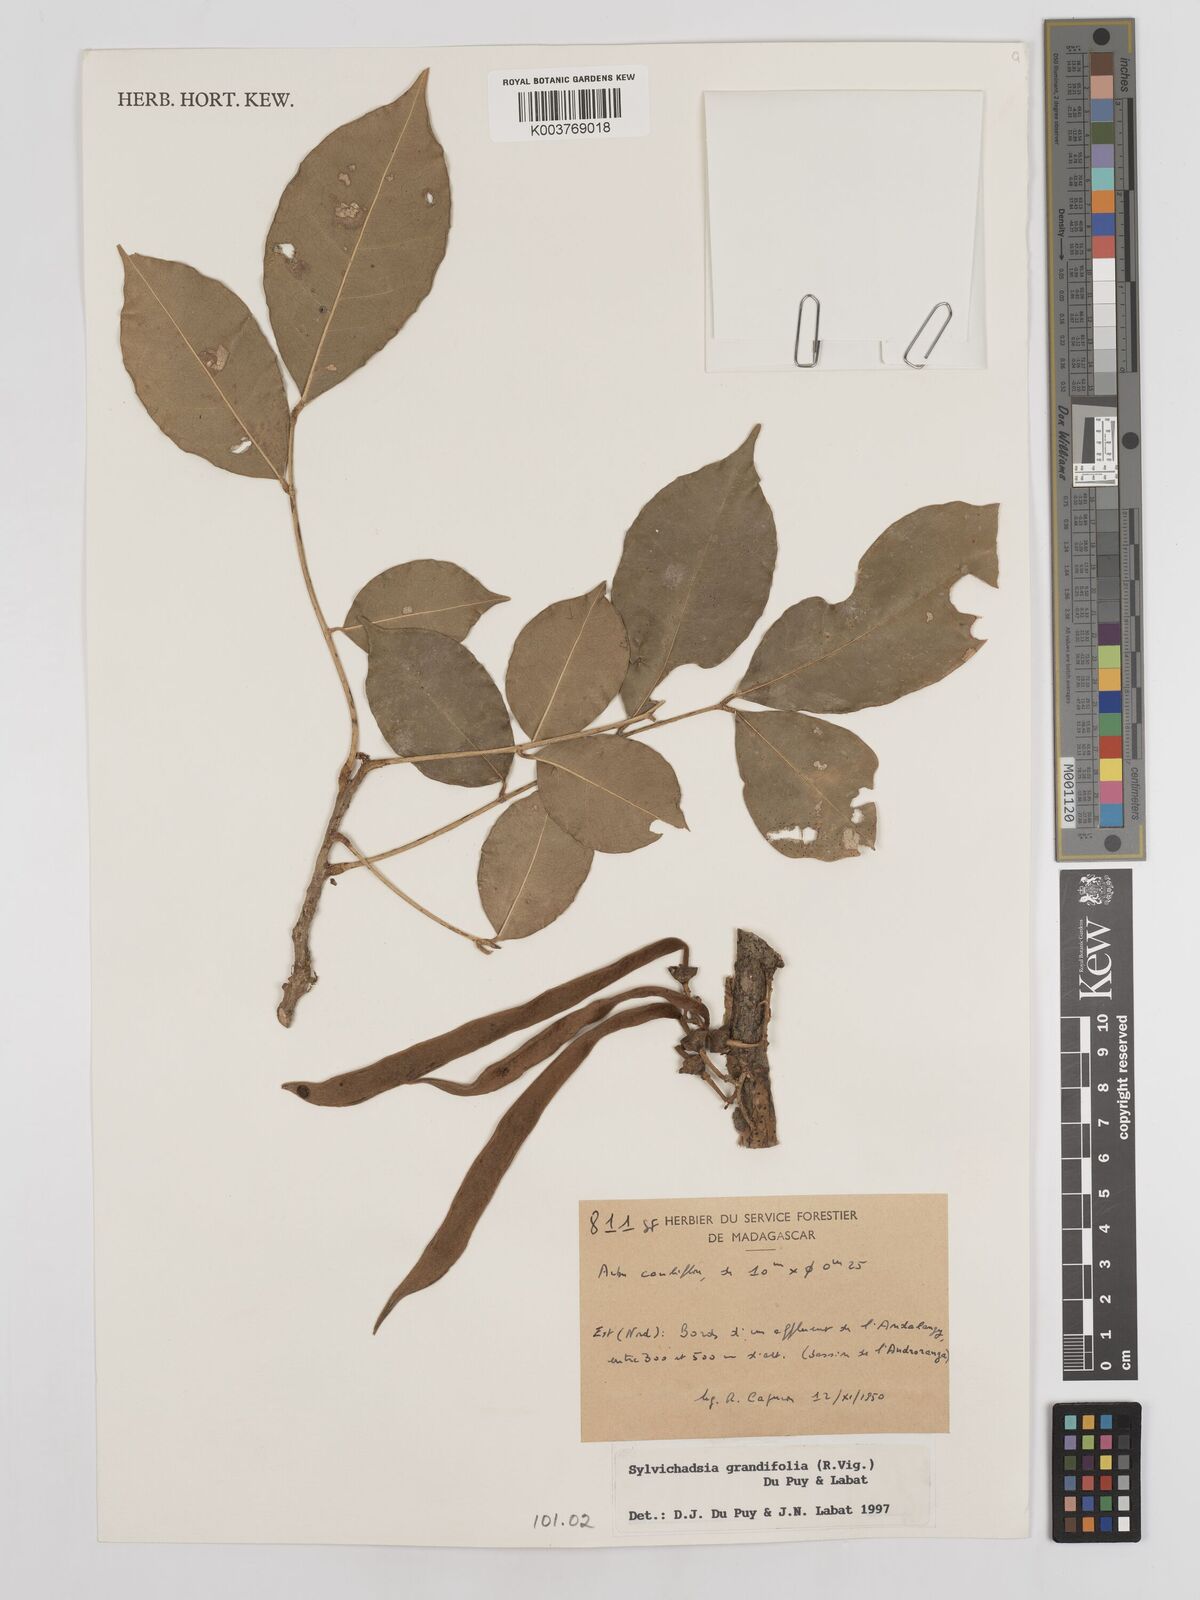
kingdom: Plantae
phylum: Tracheophyta
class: Magnoliopsida
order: Fabales
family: Fabaceae
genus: Sylvichadsia
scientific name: Sylvichadsia grandifolia
